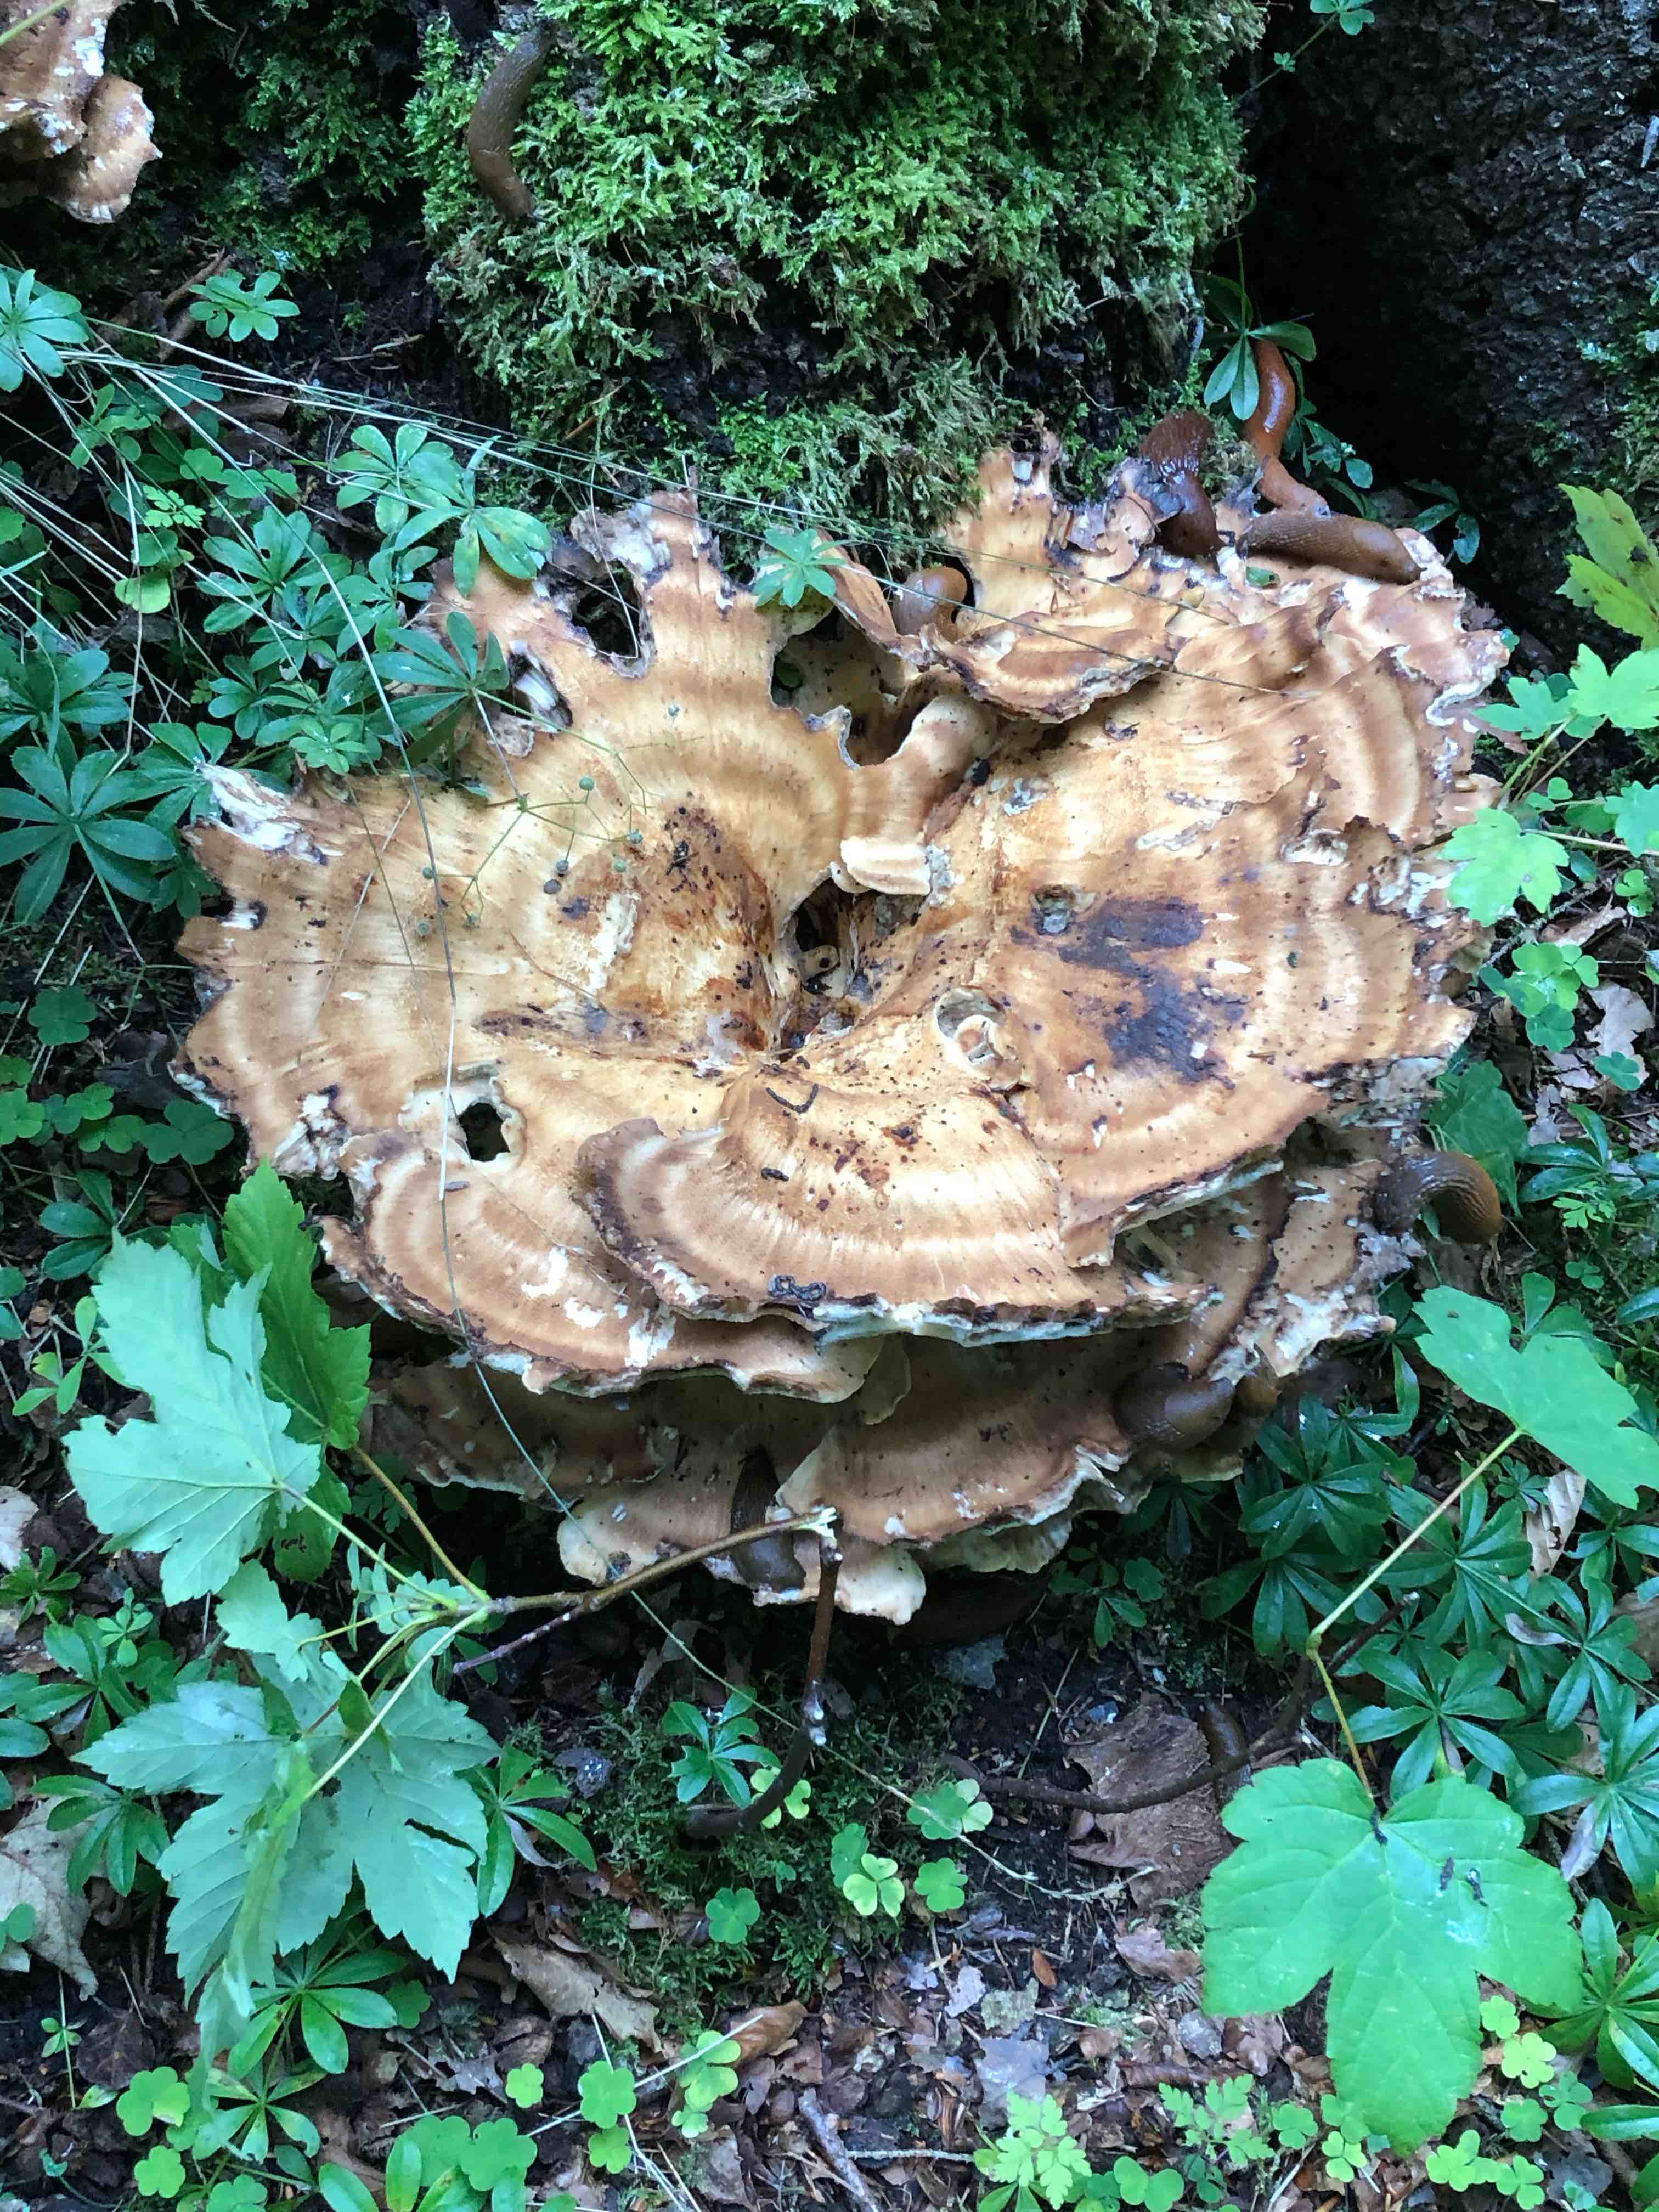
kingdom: Fungi
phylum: Basidiomycota
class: Agaricomycetes
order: Polyporales
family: Meripilaceae
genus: Meripilus
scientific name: Meripilus giganteus
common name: kæmpeporesvamp
